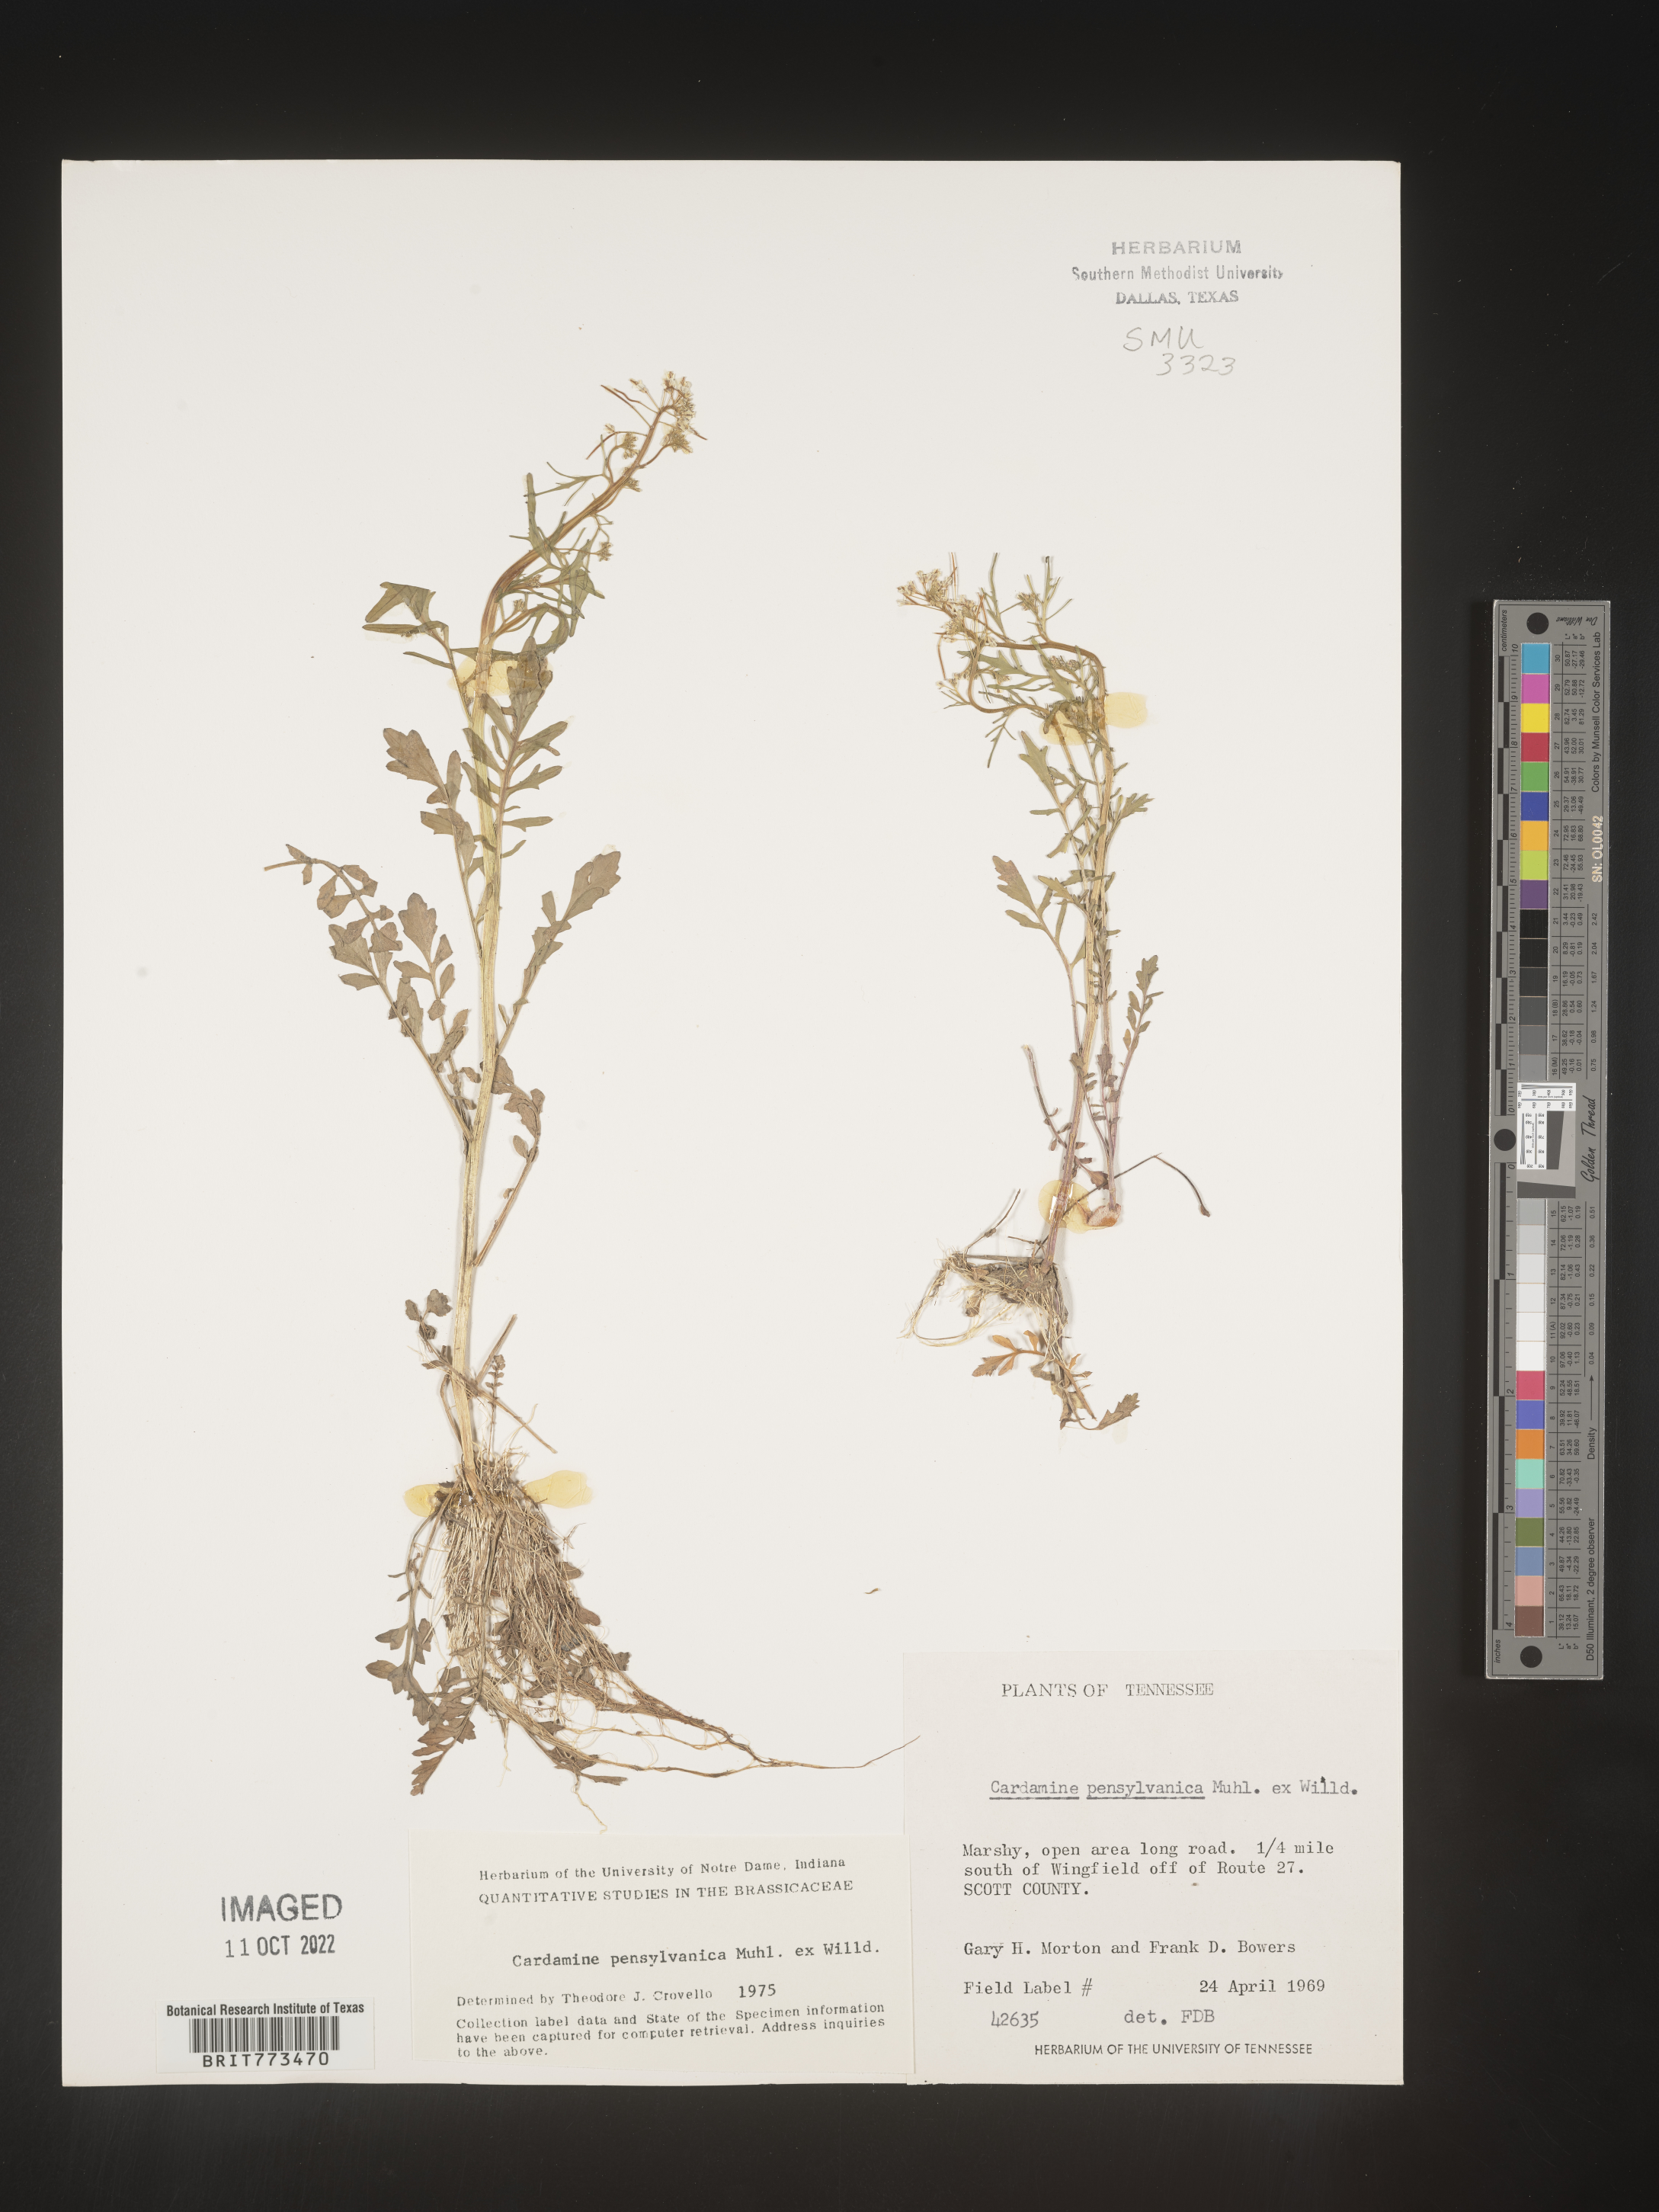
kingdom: Plantae
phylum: Tracheophyta
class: Magnoliopsida
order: Brassicales
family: Brassicaceae
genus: Cardamine
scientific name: Cardamine pensylvanica
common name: Pennsylvania bittercress
